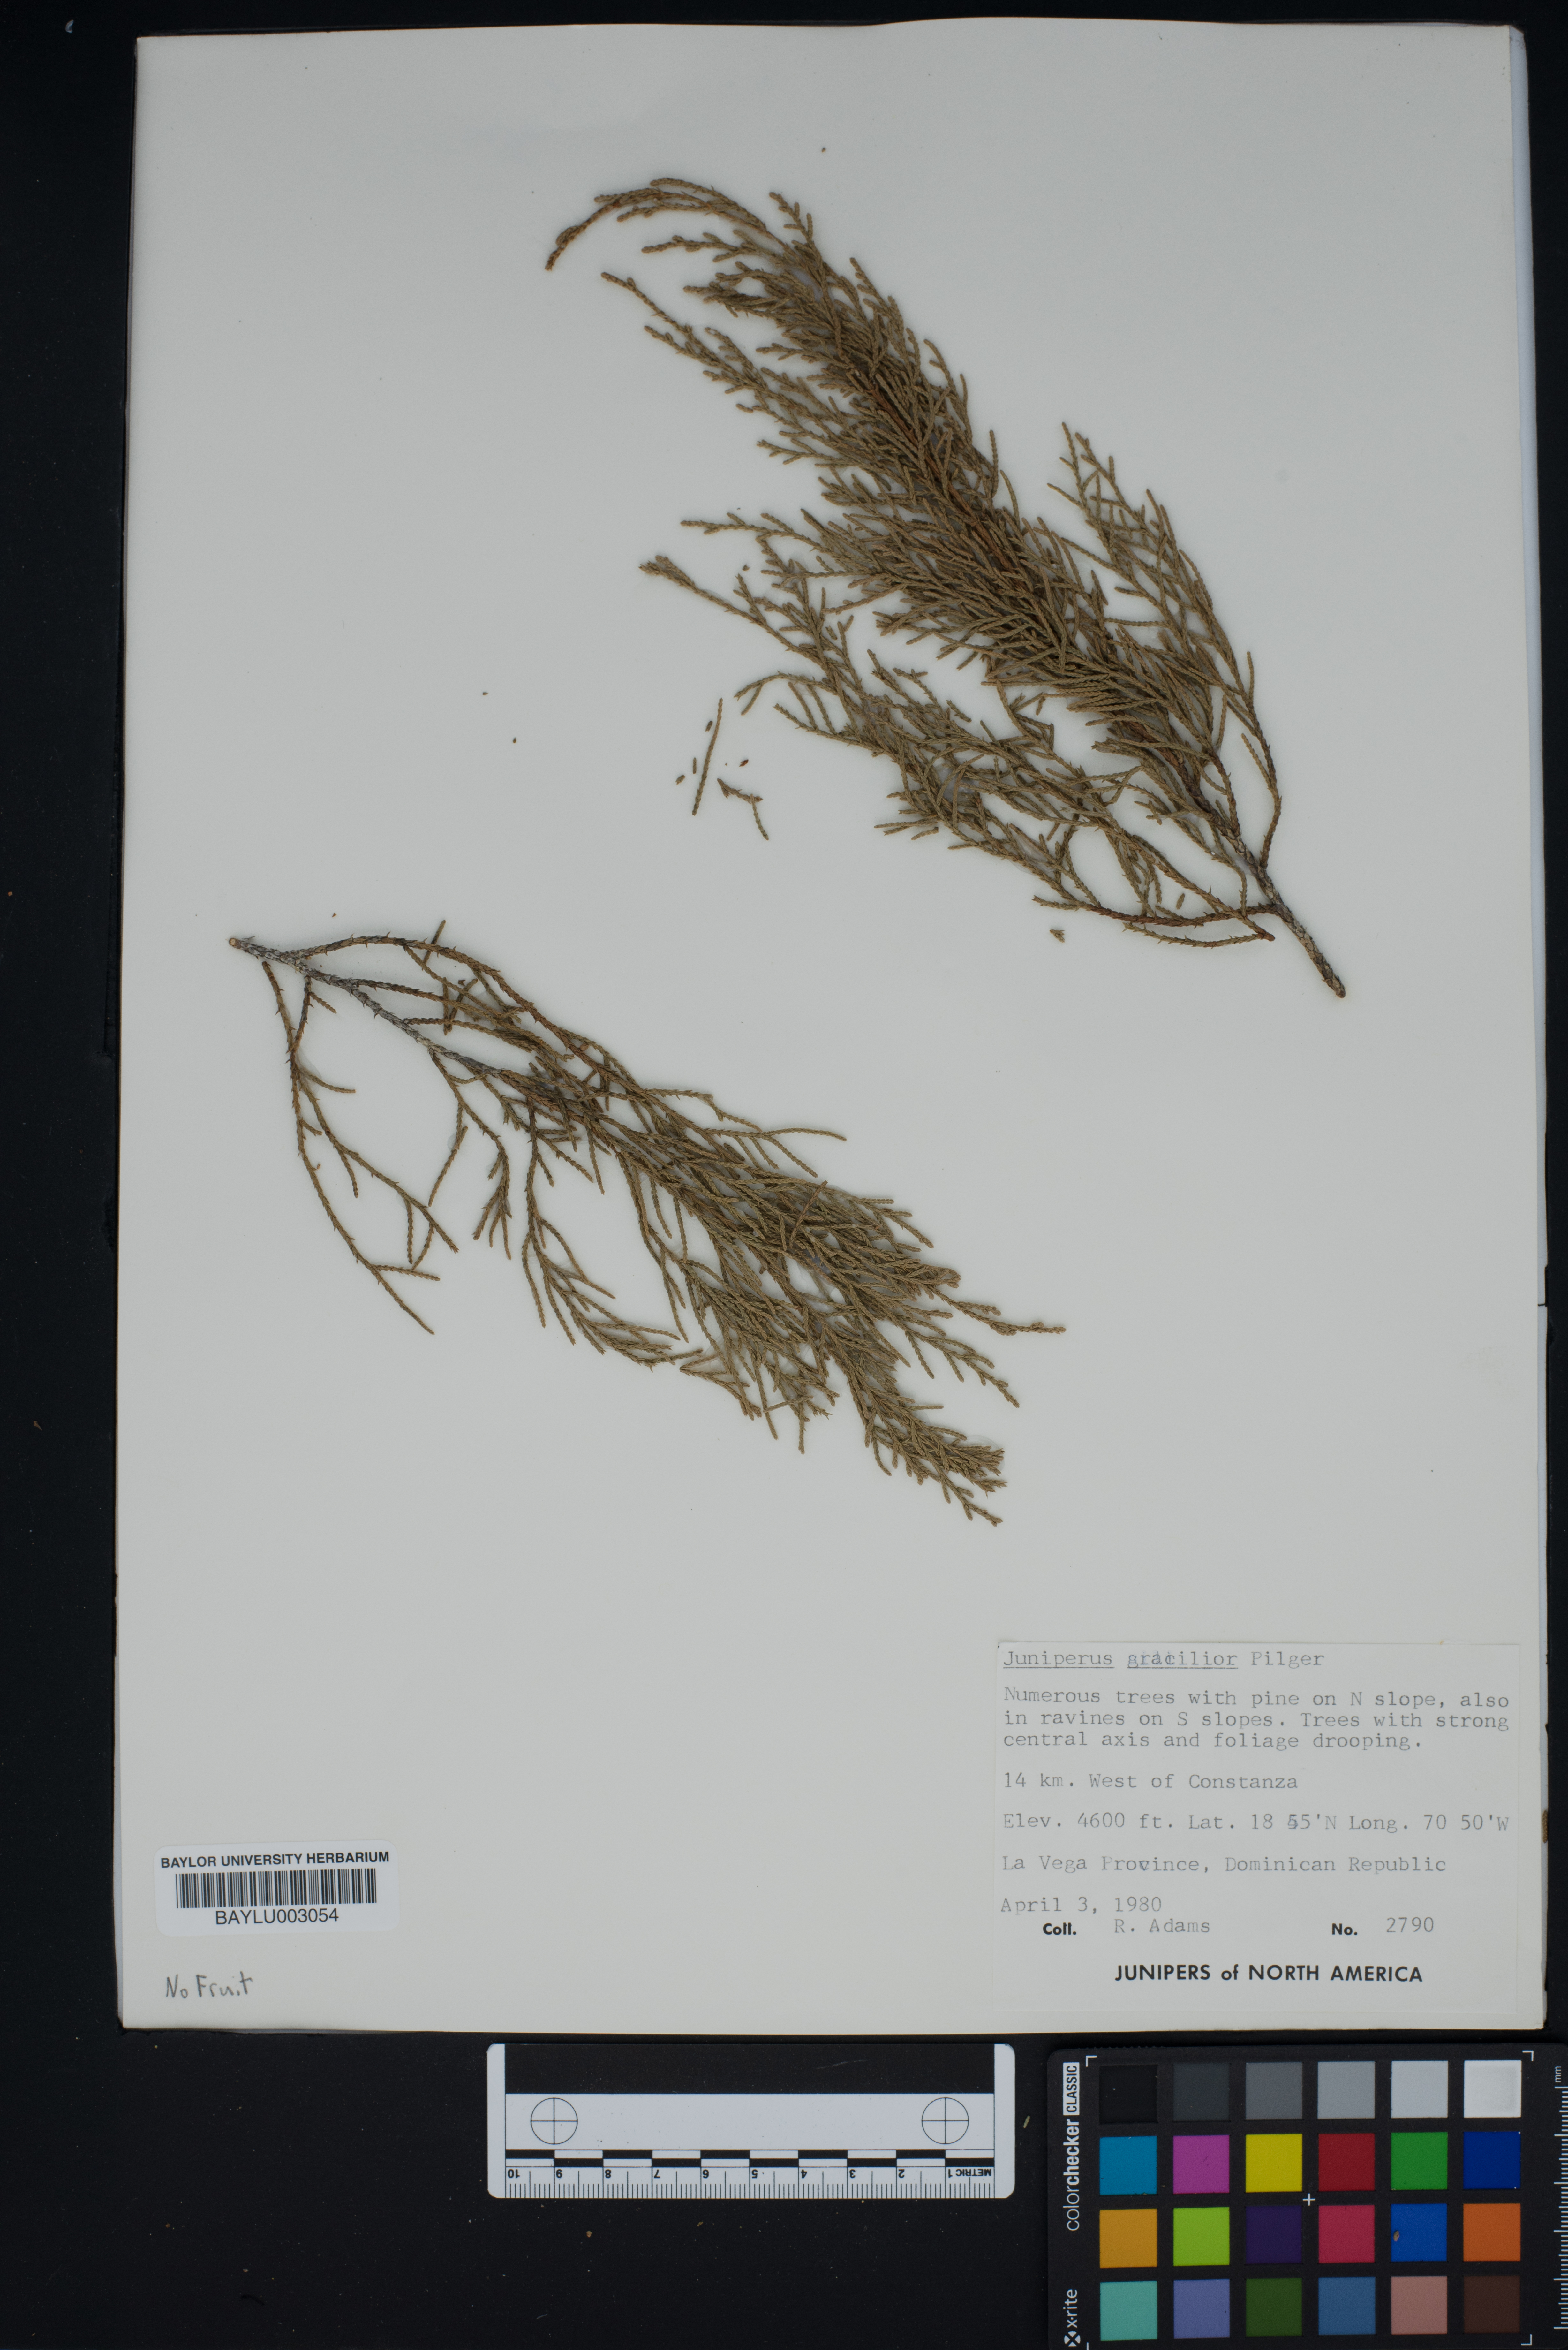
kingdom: Plantae
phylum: Tracheophyta
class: Pinopsida
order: Pinales
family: Cupressaceae
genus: Juniperus
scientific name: Juniperus gracilior
